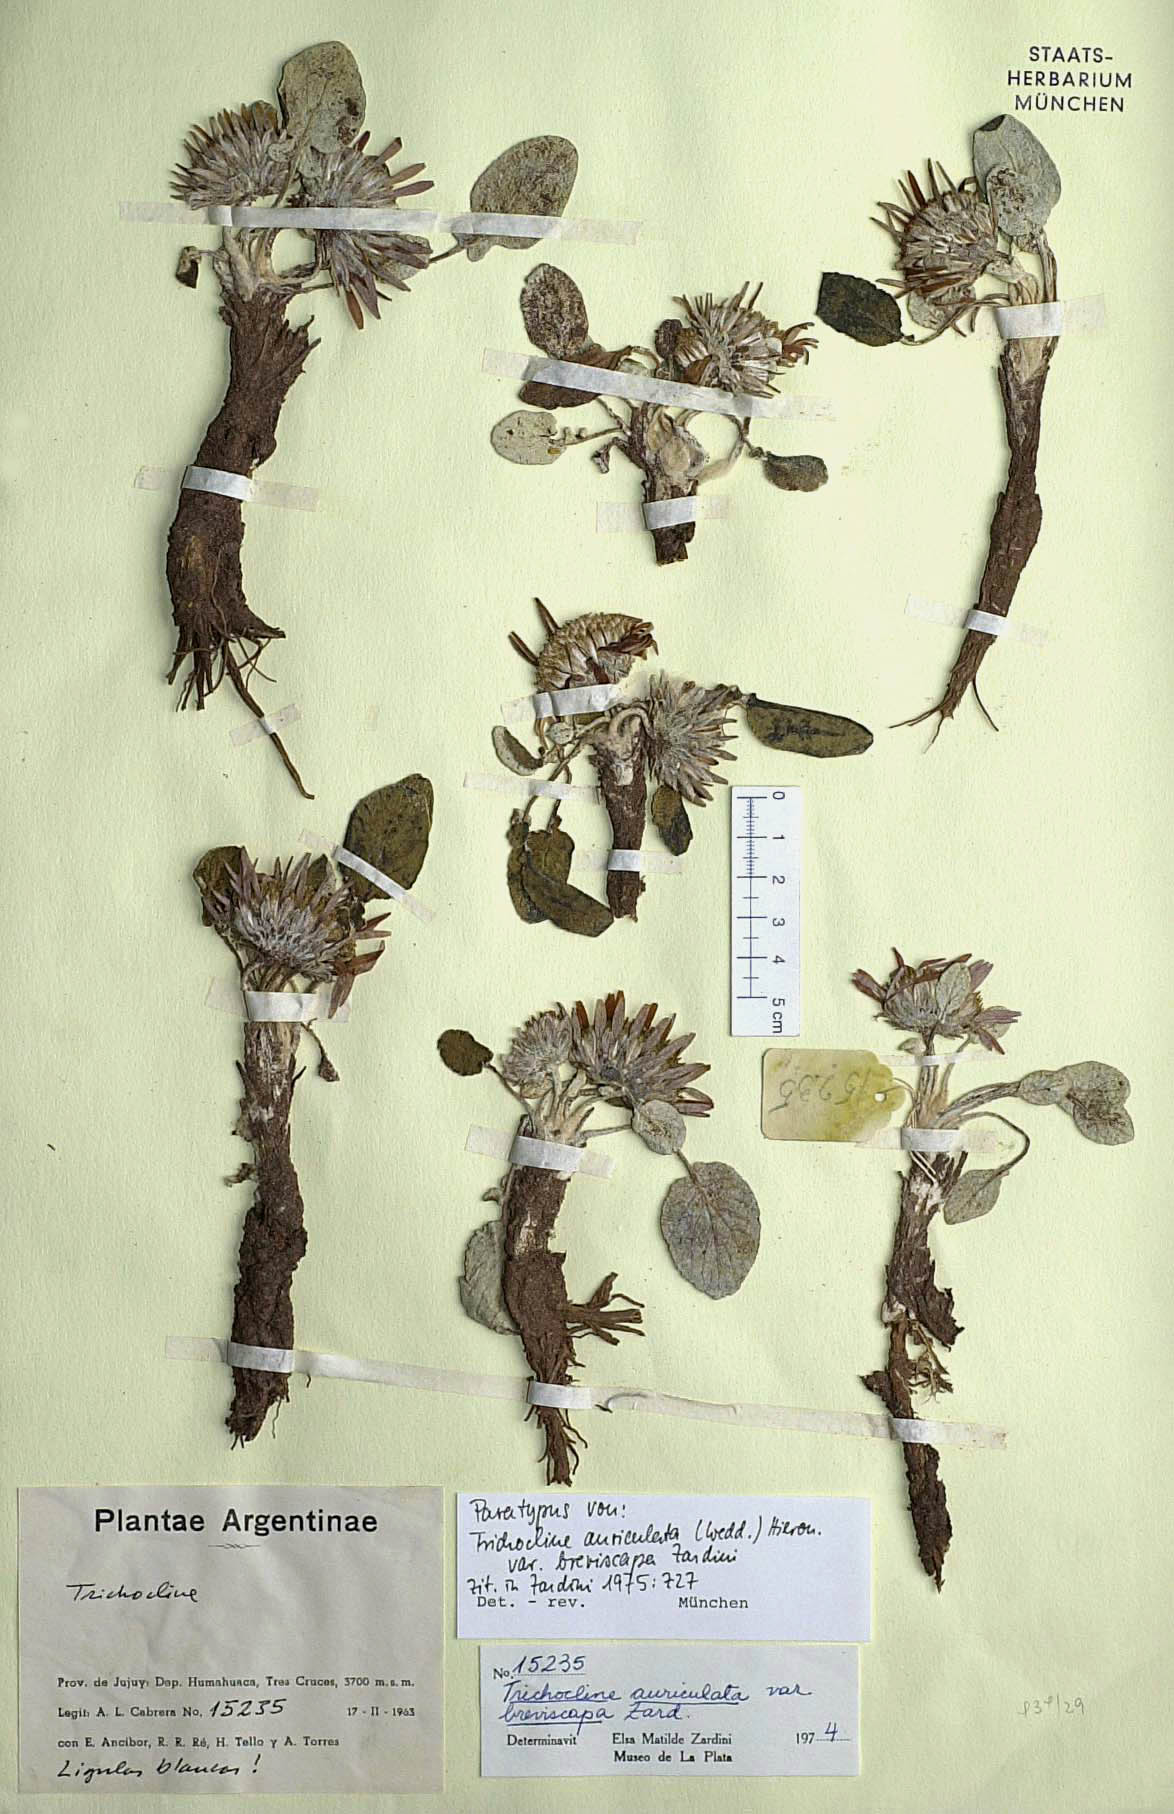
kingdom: Plantae
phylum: Tracheophyta
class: Magnoliopsida
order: Asterales
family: Asteraceae
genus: Trichocline
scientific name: Trichocline auriculata
